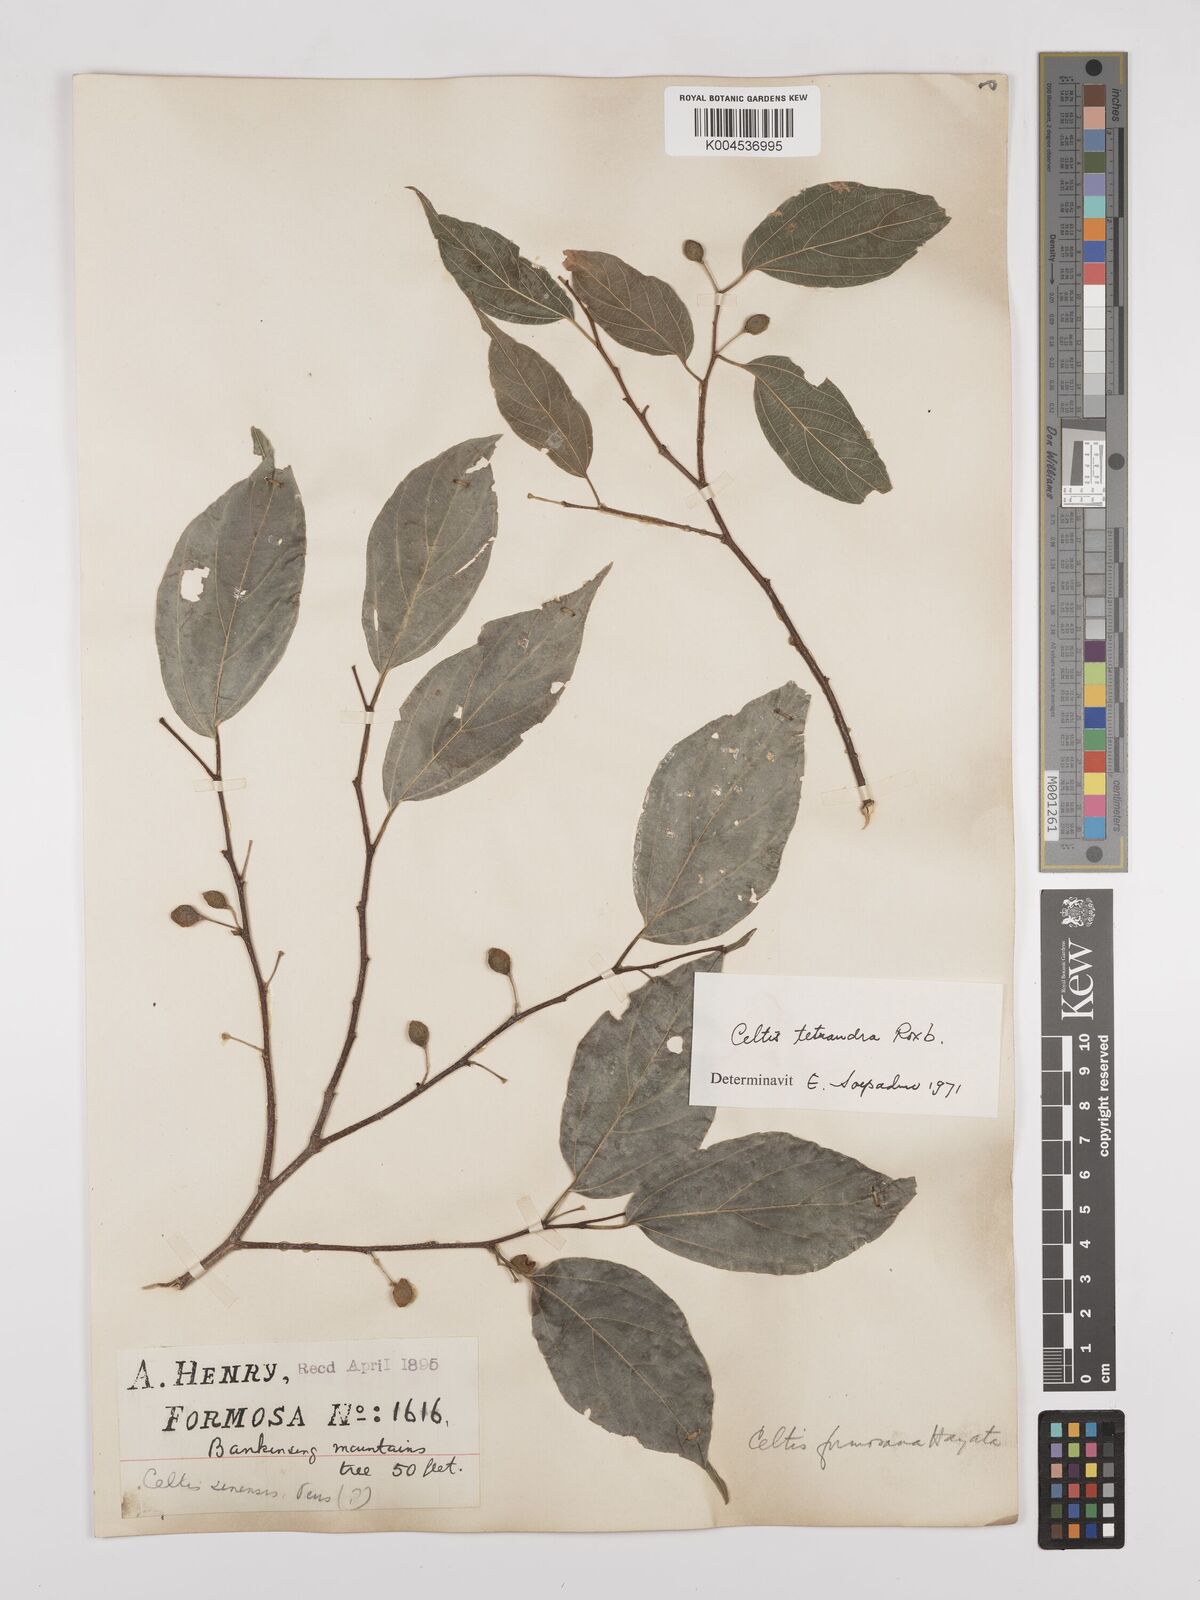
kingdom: Plantae
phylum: Tracheophyta
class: Magnoliopsida
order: Rosales
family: Cannabaceae
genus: Celtis
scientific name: Celtis tetrandra
